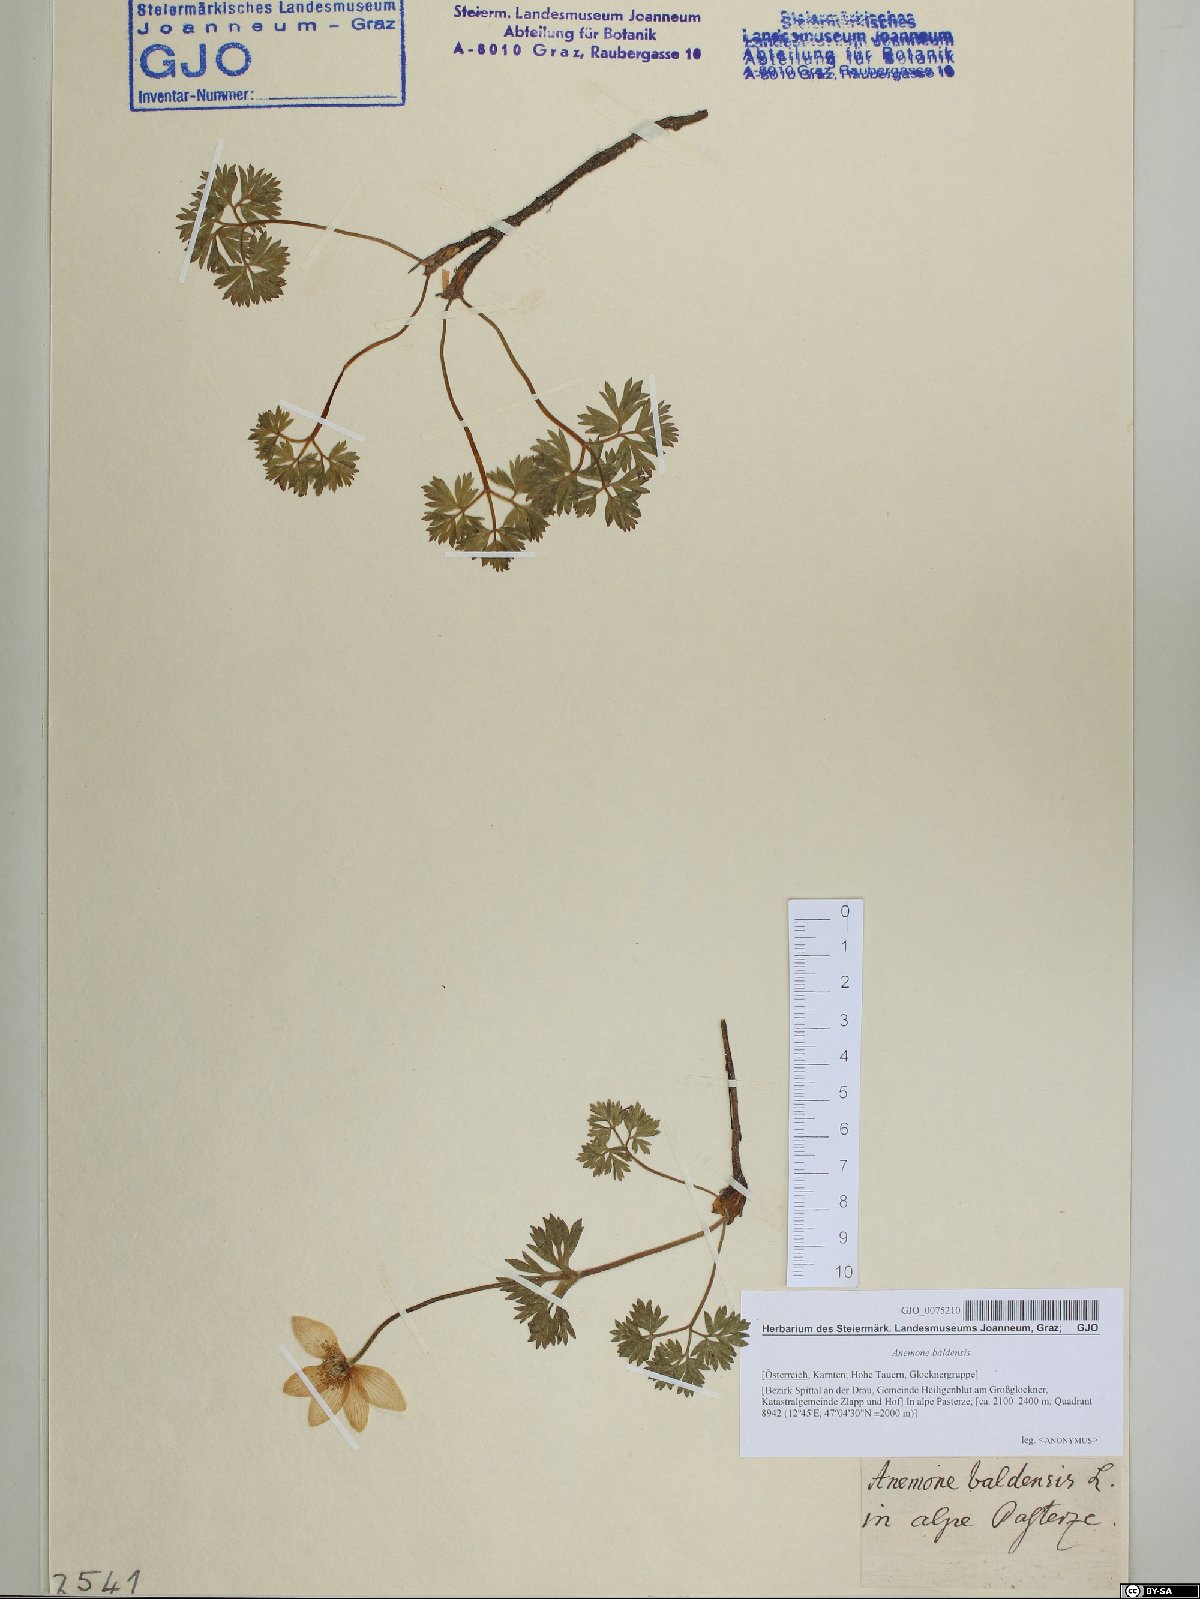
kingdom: Plantae
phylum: Tracheophyta
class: Magnoliopsida
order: Ranunculales
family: Ranunculaceae
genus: Anemone
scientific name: Anemone baldensis
